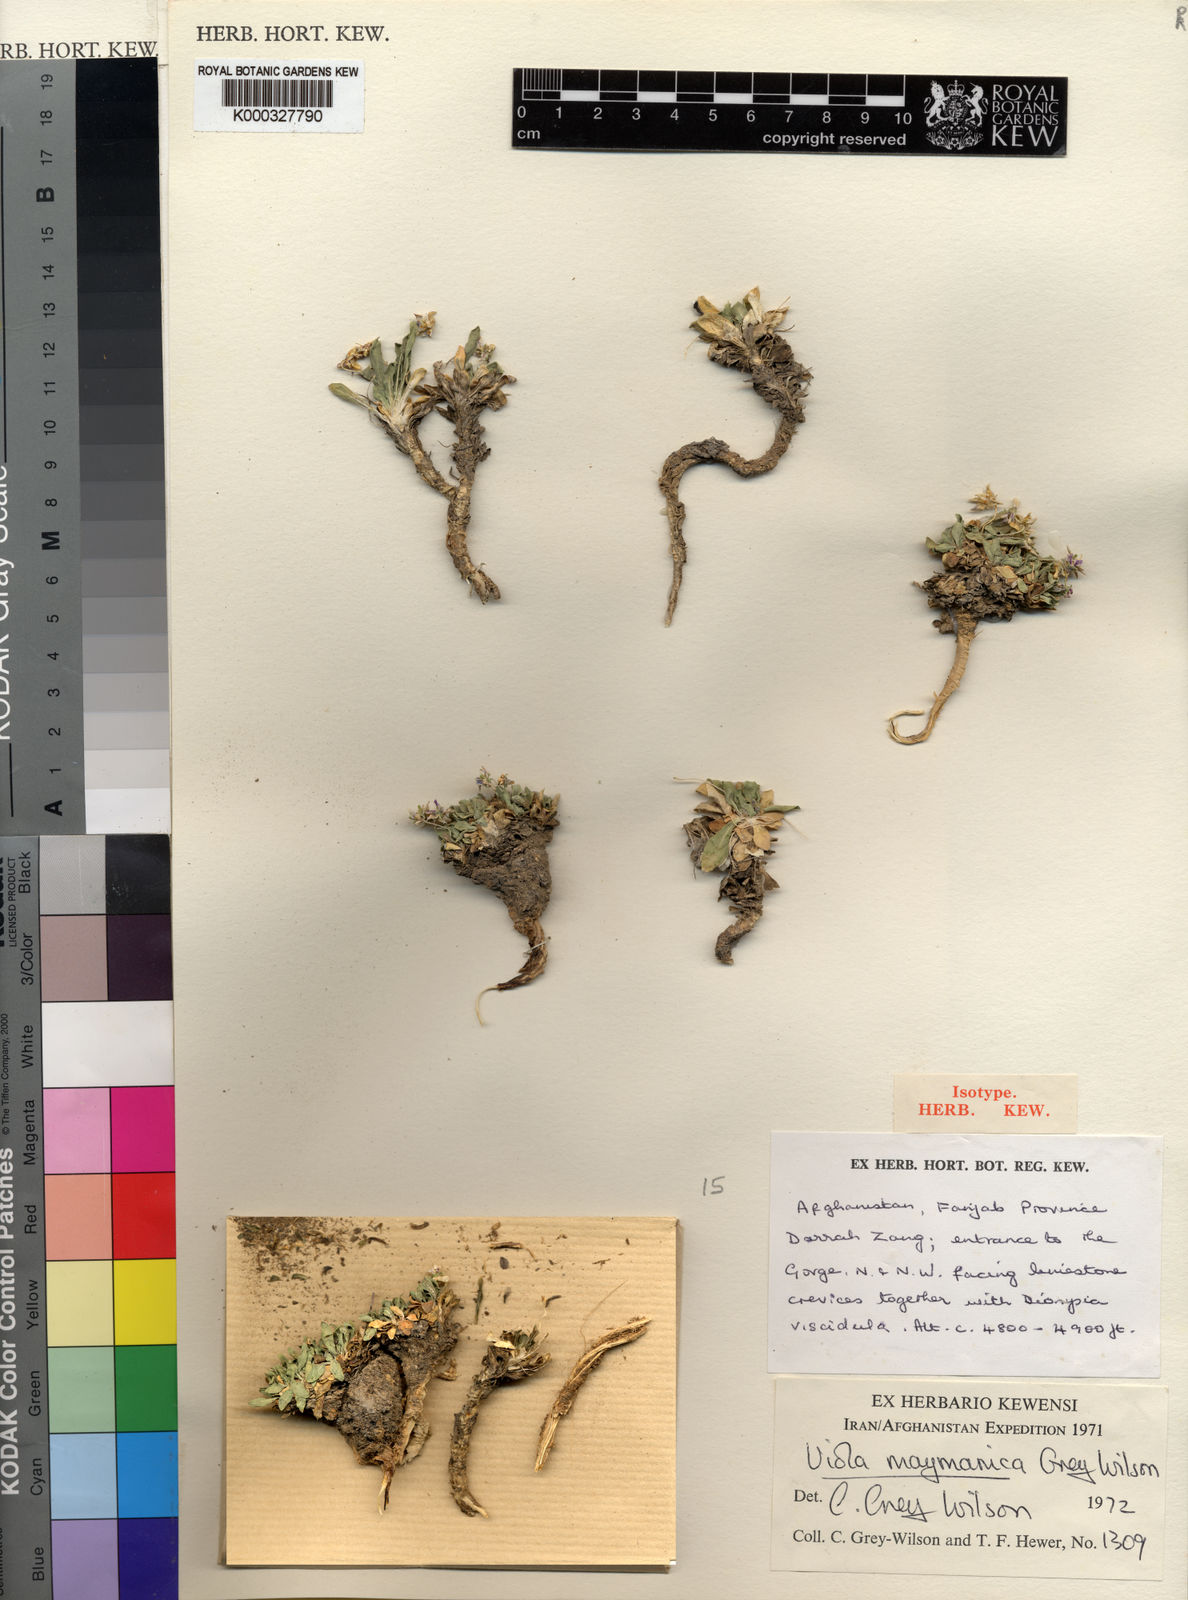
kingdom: Plantae
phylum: Tracheophyta
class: Magnoliopsida
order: Malpighiales
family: Violaceae
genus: Viola
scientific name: Viola maymanica
